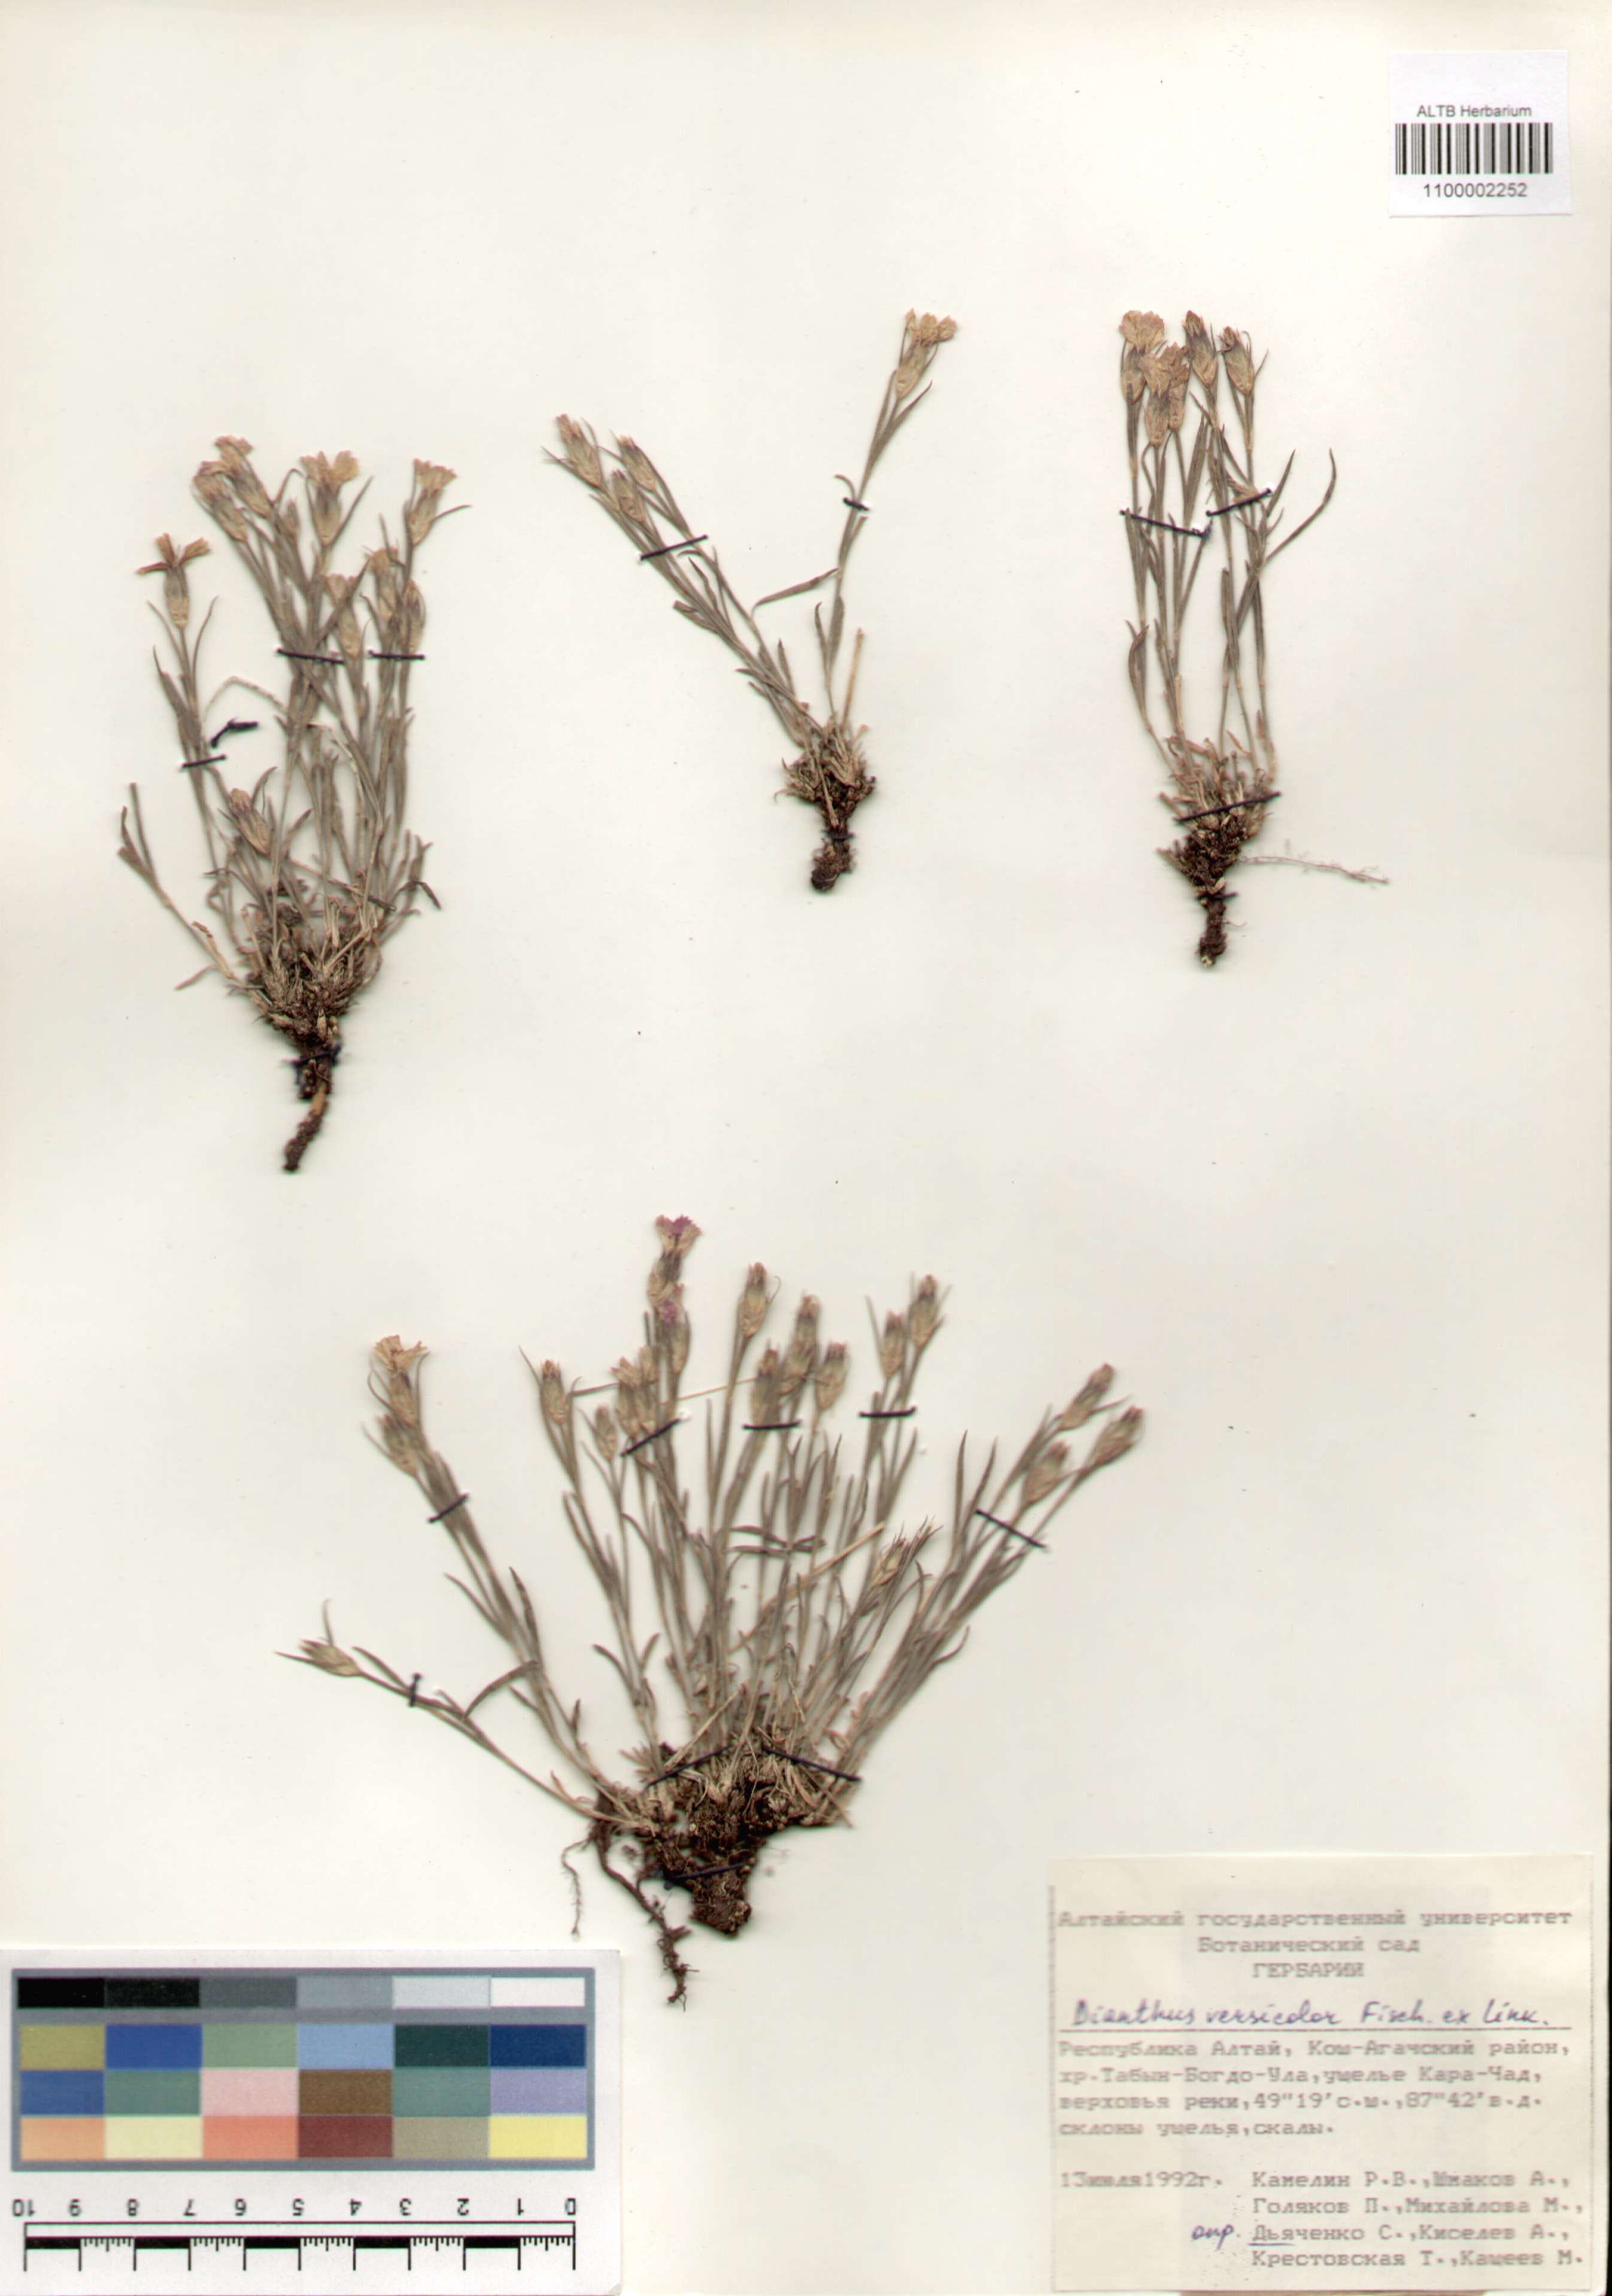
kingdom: Plantae
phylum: Tracheophyta
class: Magnoliopsida
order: Caryophyllales
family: Caryophyllaceae
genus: Dianthus
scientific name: Dianthus chinensis
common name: Rainbow pink
